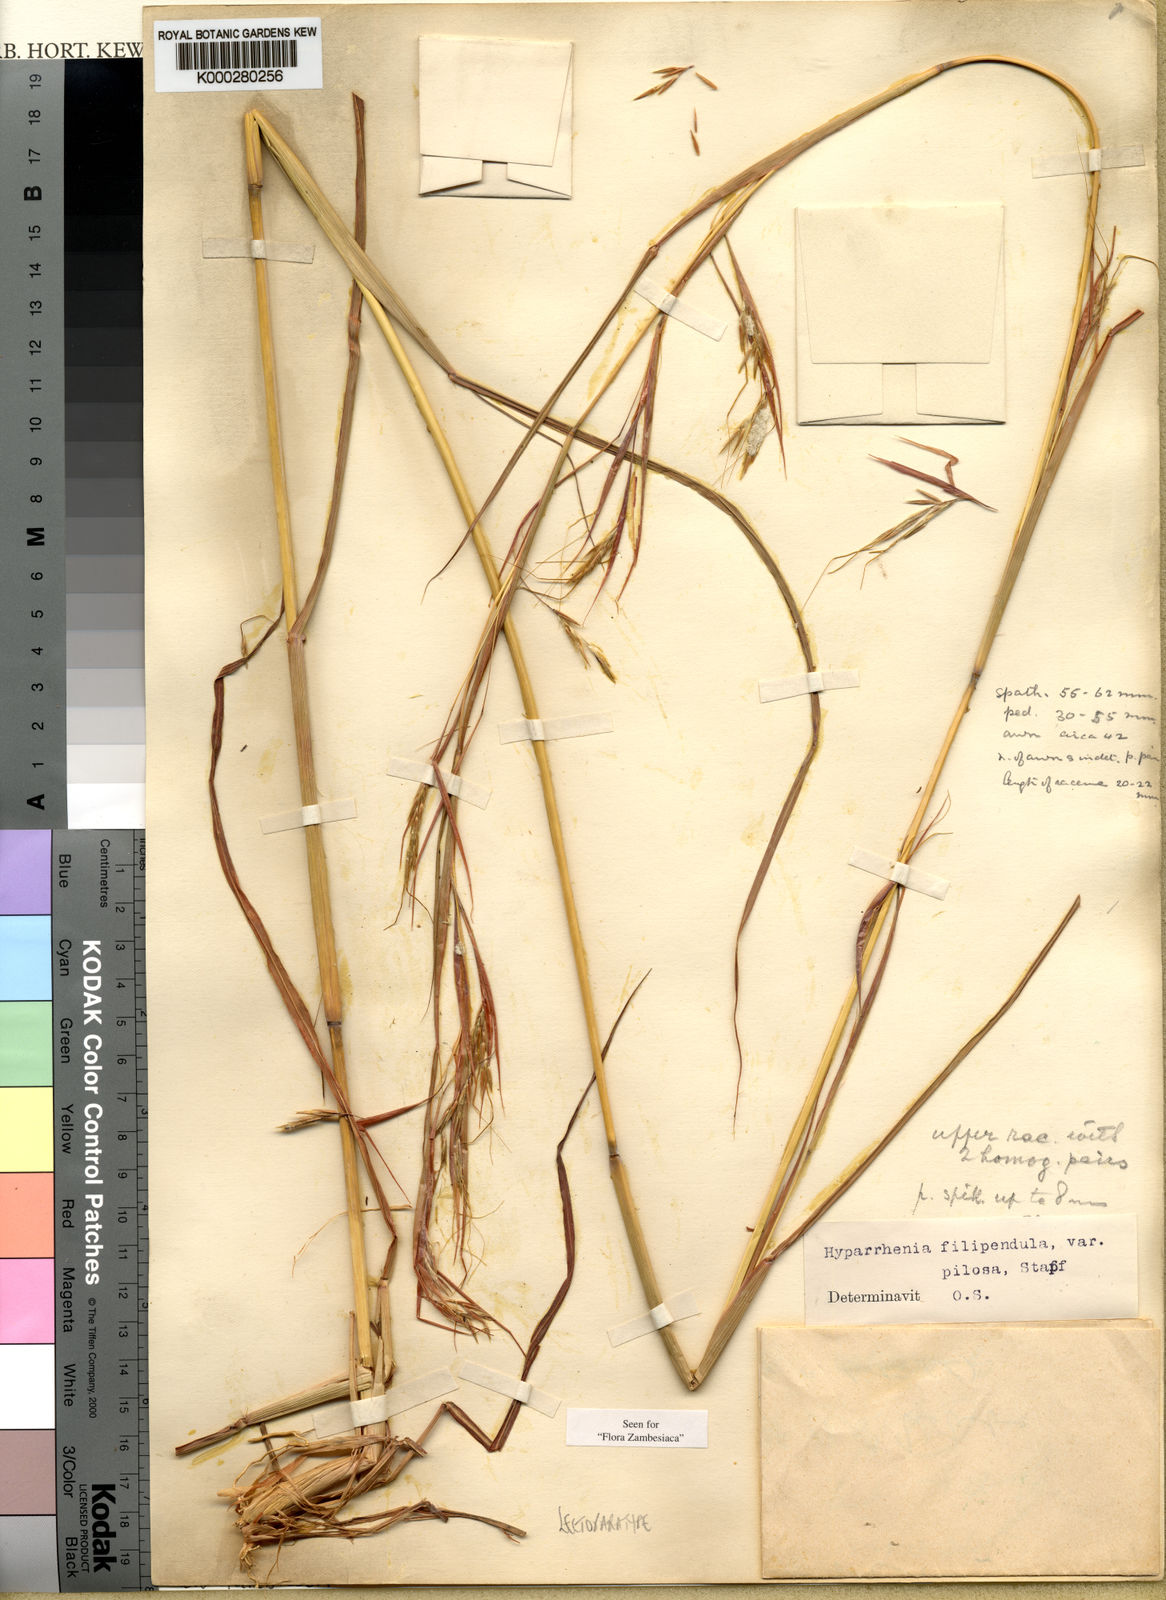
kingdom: Plantae
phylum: Tracheophyta
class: Liliopsida
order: Poales
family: Poaceae
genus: Hyparrhenia
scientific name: Hyparrhenia nyassae
